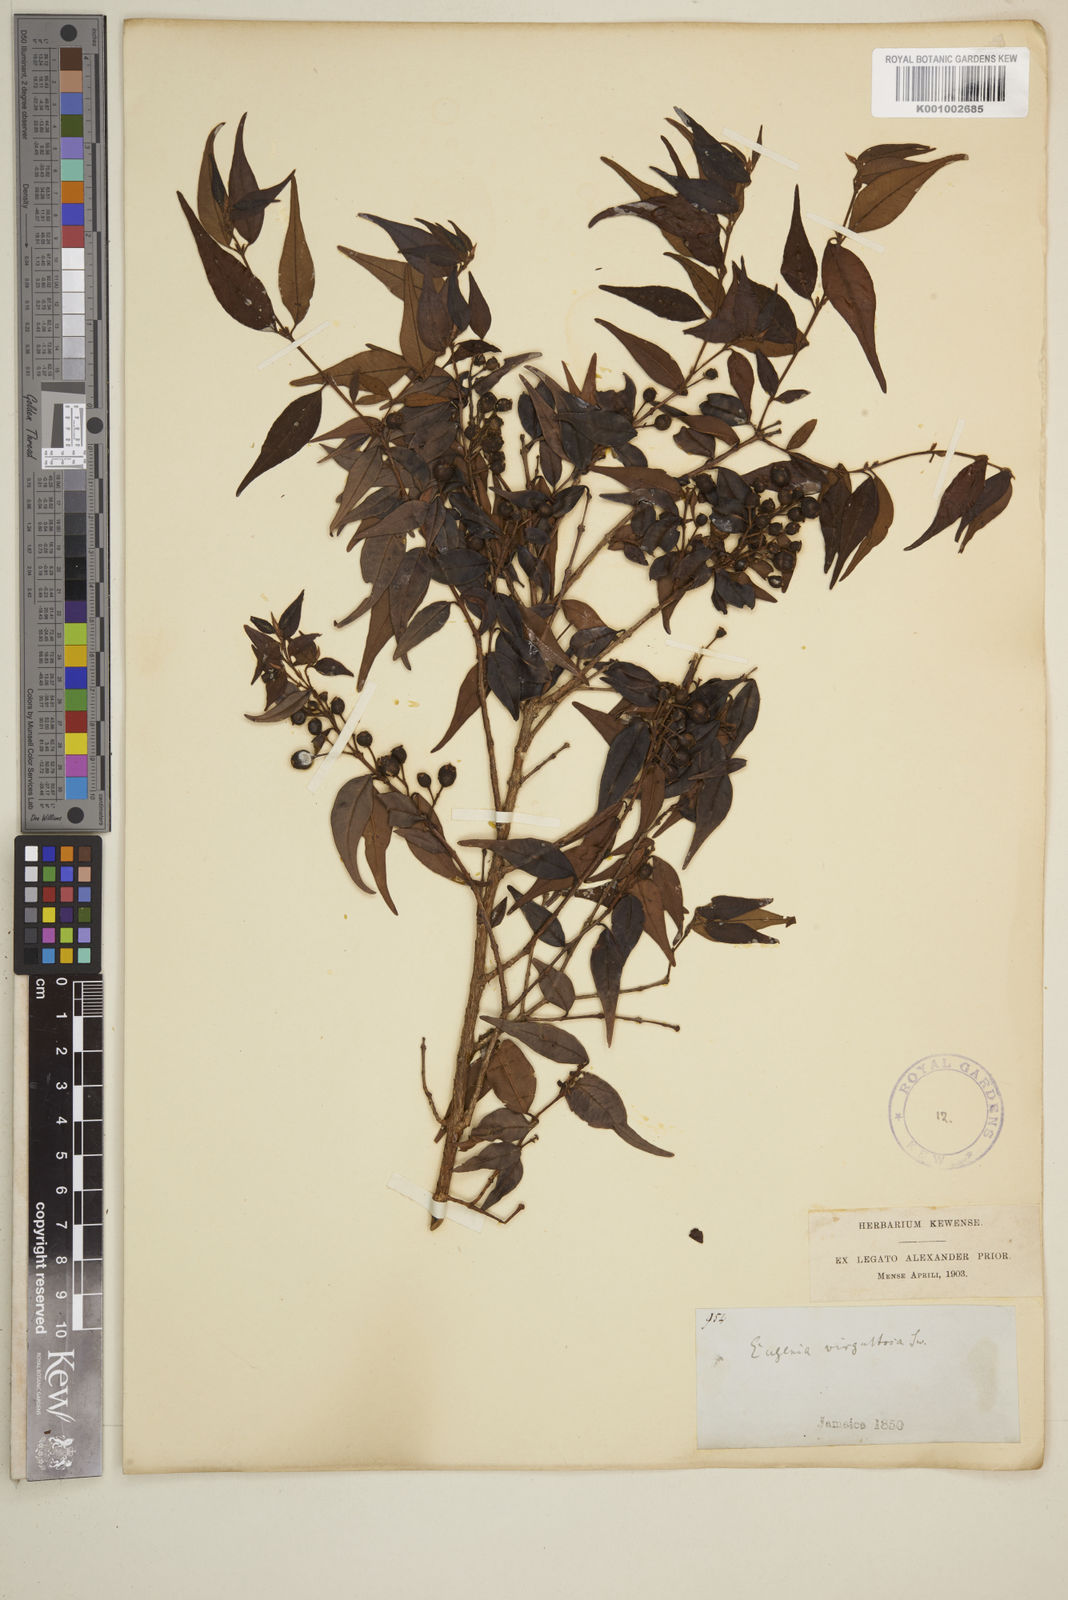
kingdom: Plantae
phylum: Tracheophyta
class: Magnoliopsida
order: Myrtales
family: Myrtaceae
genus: Eugenia
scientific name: Eugenia biflora
